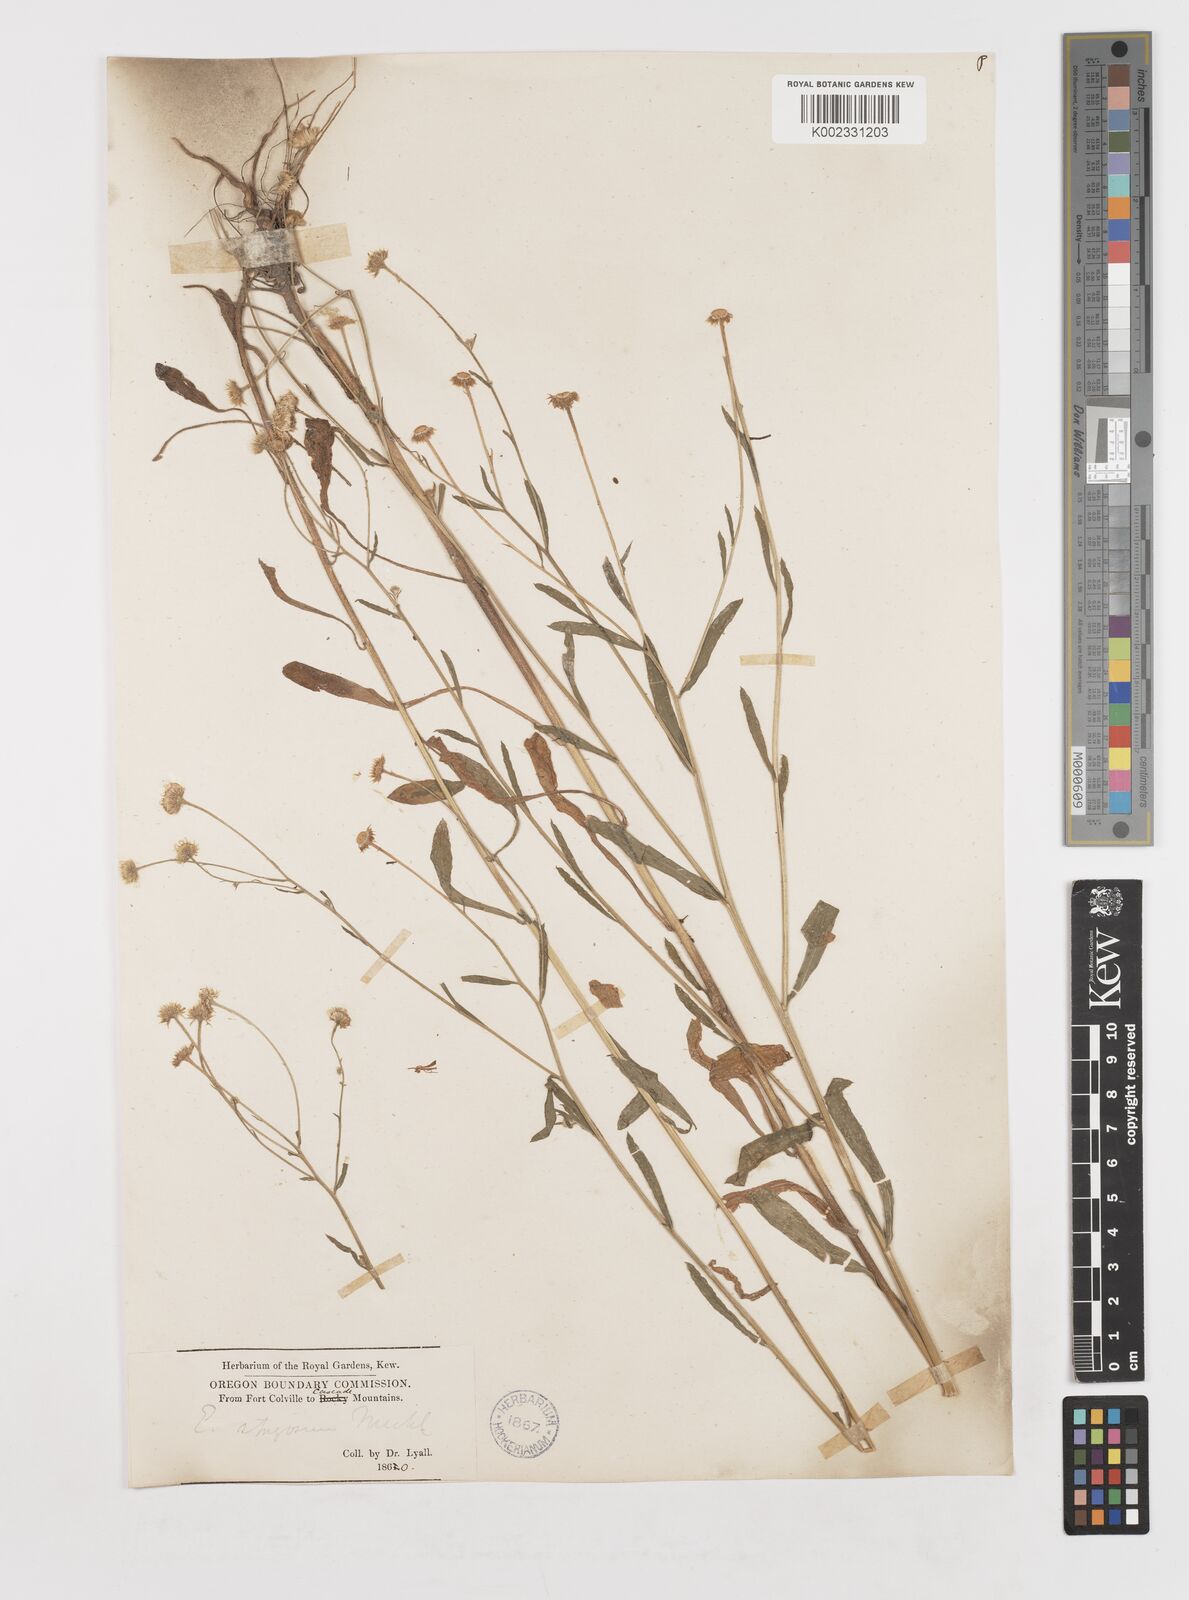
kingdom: Plantae
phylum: Tracheophyta
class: Magnoliopsida
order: Asterales
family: Asteraceae
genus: Erigeron
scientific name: Erigeron strigosus
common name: Common eastern fleabane
